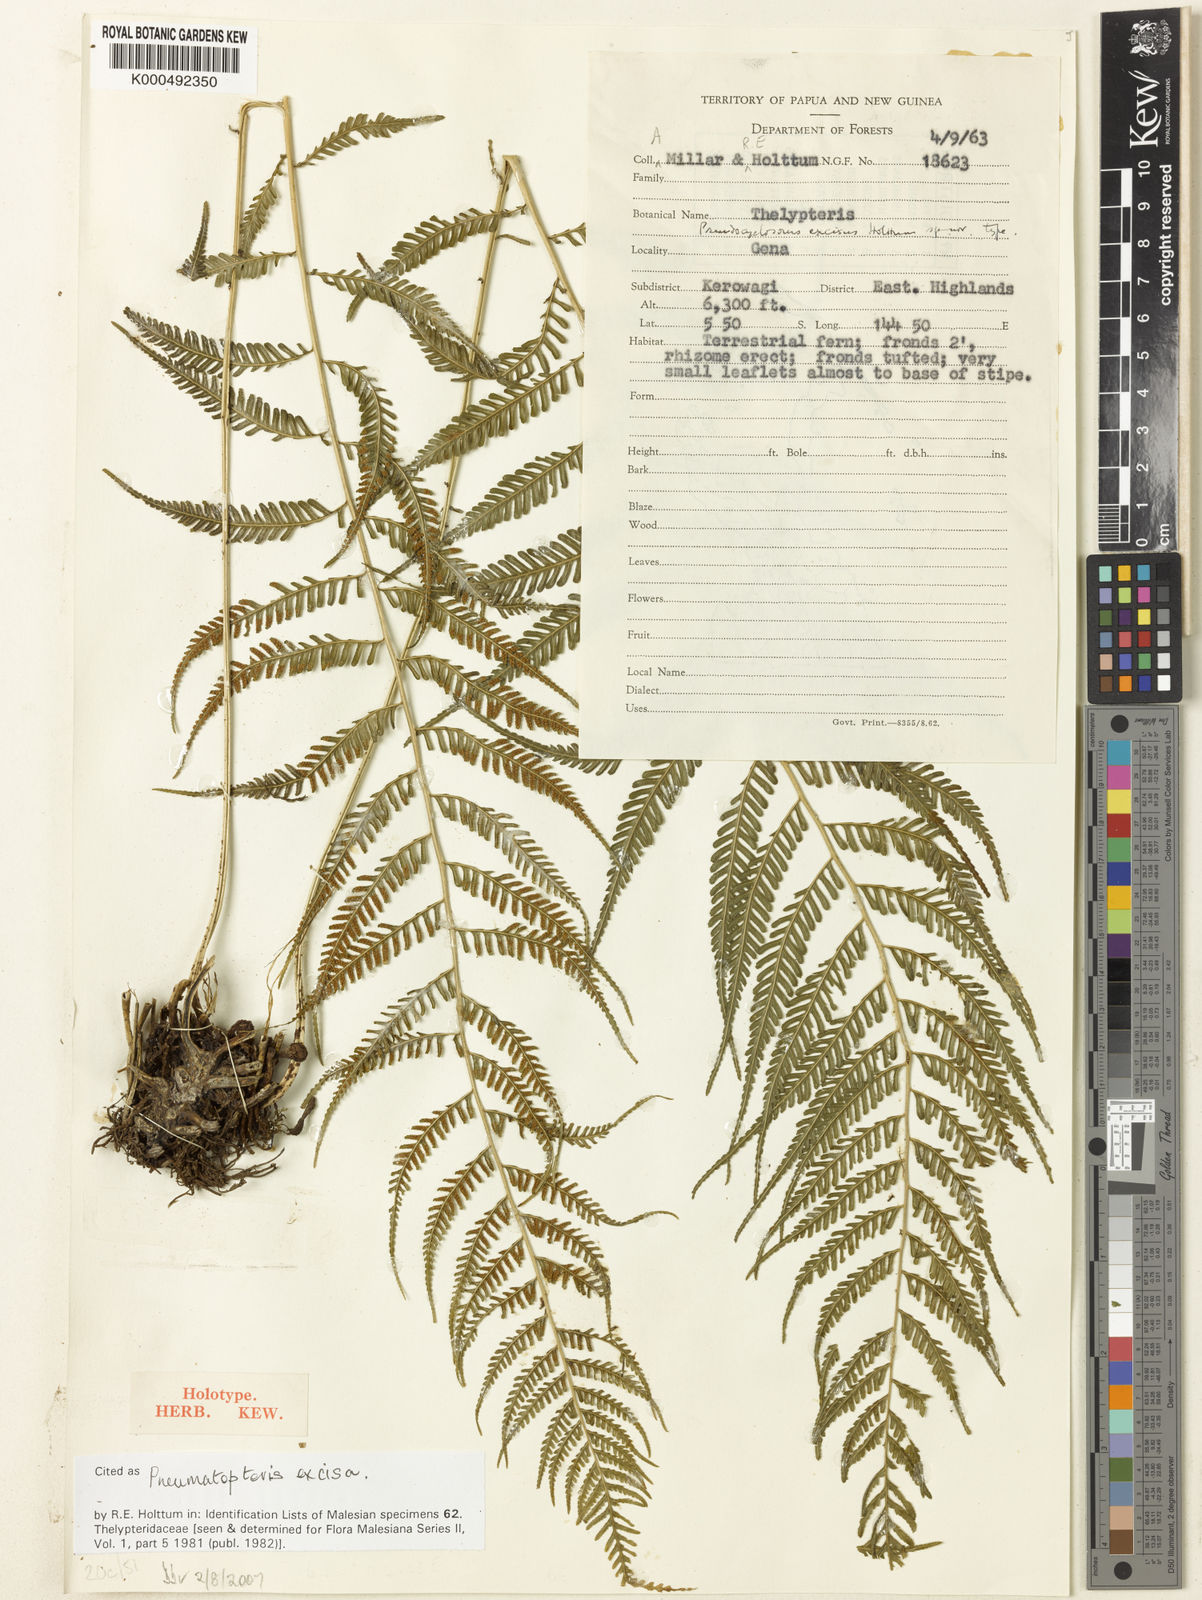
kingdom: Plantae
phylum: Tracheophyta
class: Polypodiopsida
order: Polypodiales
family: Thelypteridaceae
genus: Plesioneuron
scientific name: Plesioneuron excisum
